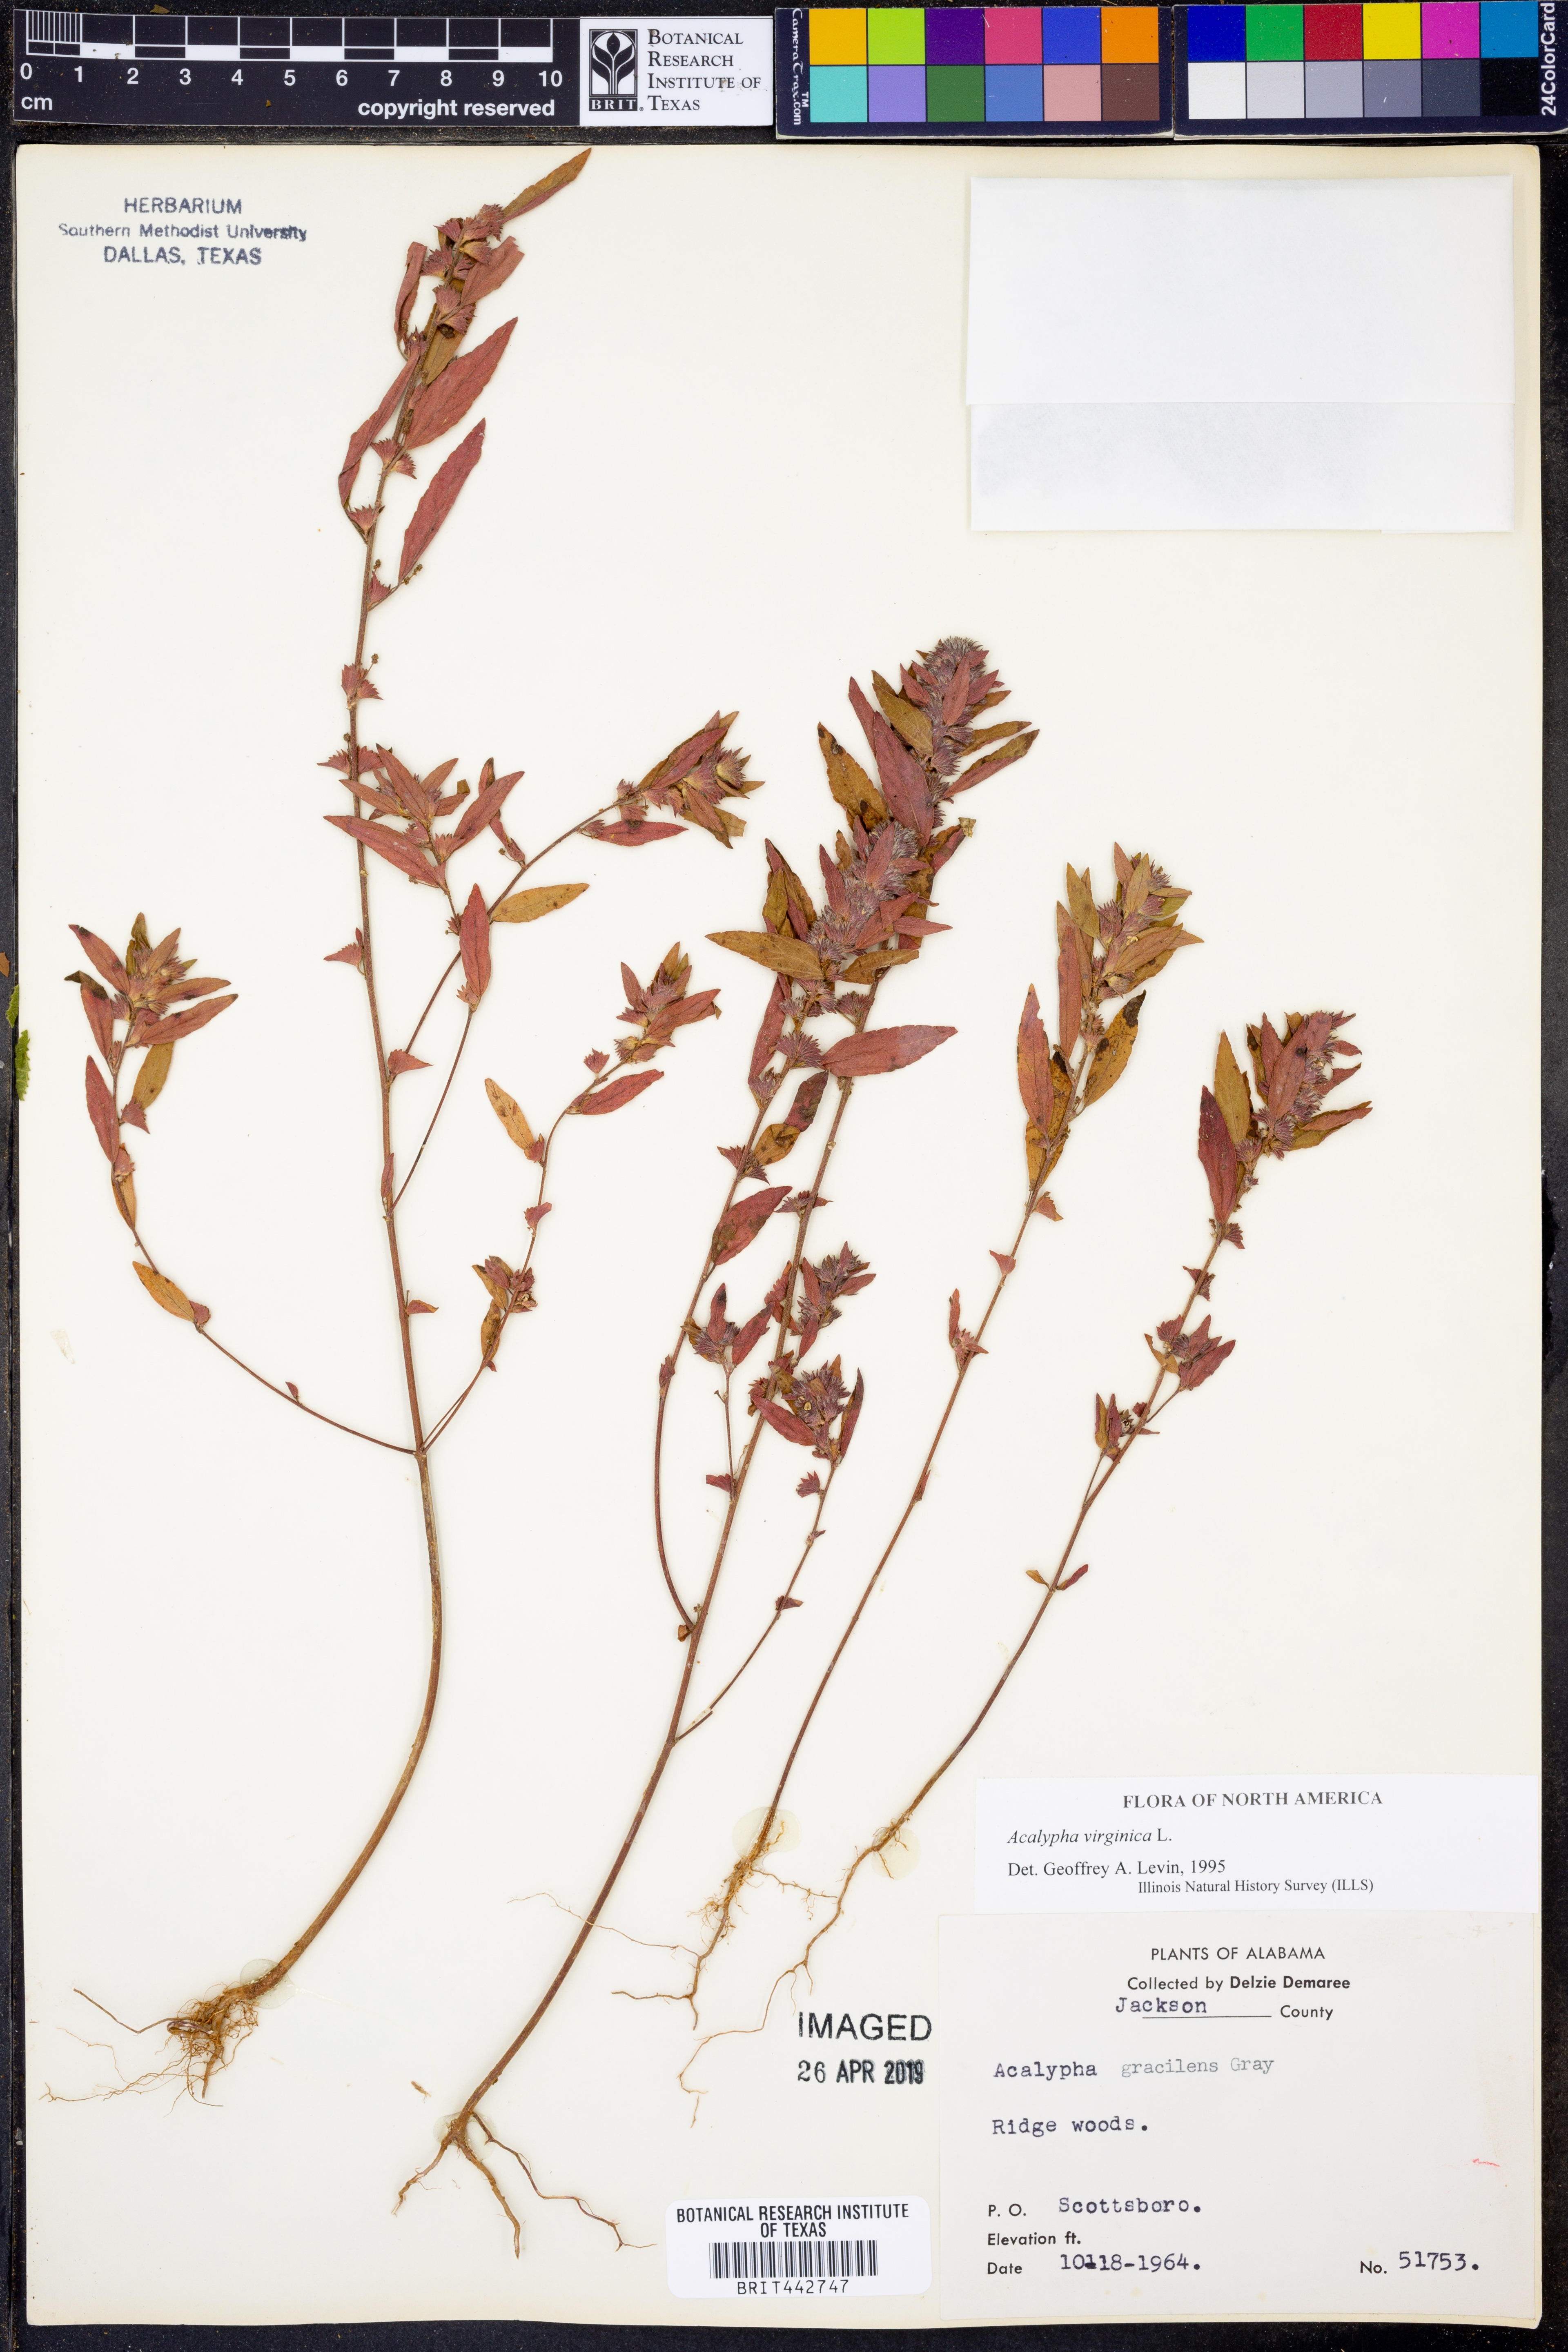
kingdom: Plantae
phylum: Tracheophyta
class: Magnoliopsida
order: Malpighiales
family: Euphorbiaceae
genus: Acalypha
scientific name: Acalypha virginica
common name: Virginia copperleaf
